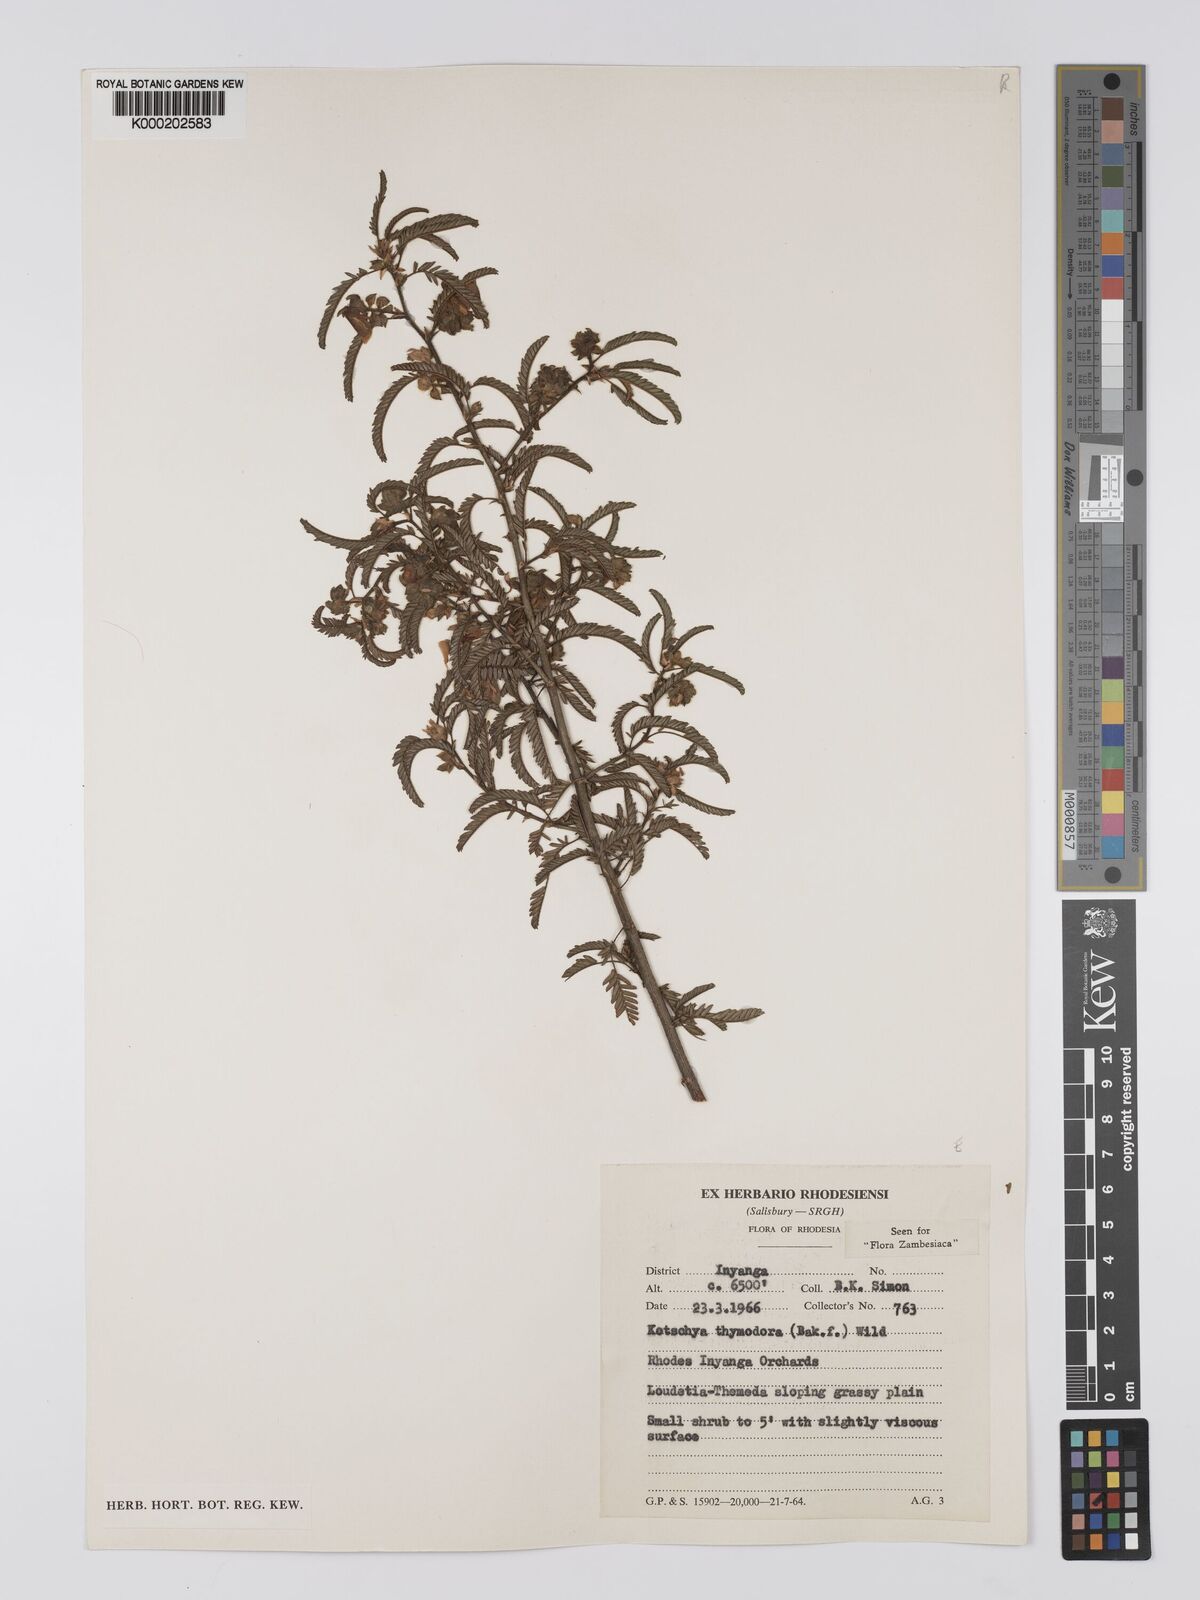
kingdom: Plantae
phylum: Tracheophyta
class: Magnoliopsida
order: Fabales
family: Fabaceae
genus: Kotschya
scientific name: Kotschya thymodora
